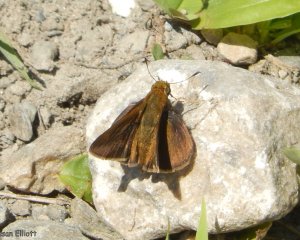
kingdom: Animalia
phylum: Arthropoda
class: Insecta
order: Lepidoptera
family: Hesperiidae
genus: Euphyes
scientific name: Euphyes vestris
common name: Dun Skipper
